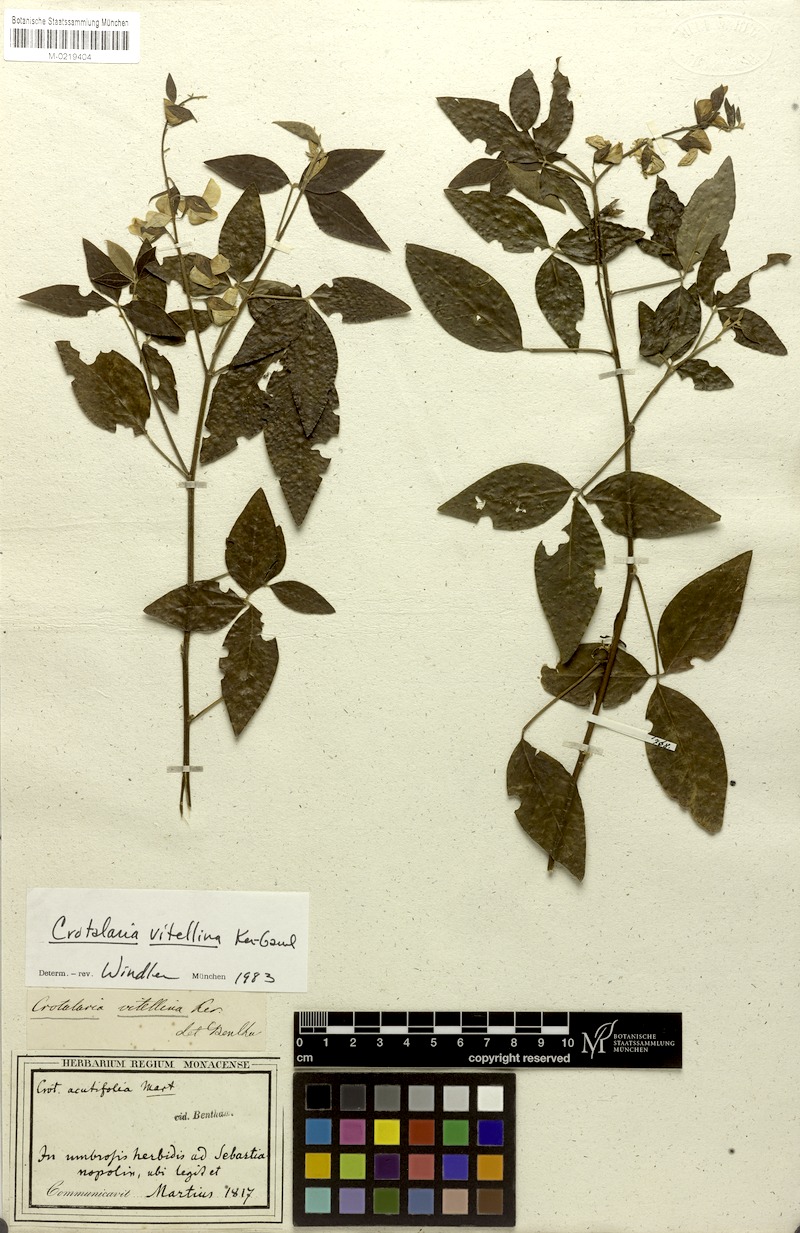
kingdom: Plantae
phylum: Tracheophyta
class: Magnoliopsida
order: Fabales
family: Fabaceae
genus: Crotalaria
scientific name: Crotalaria vitellina
